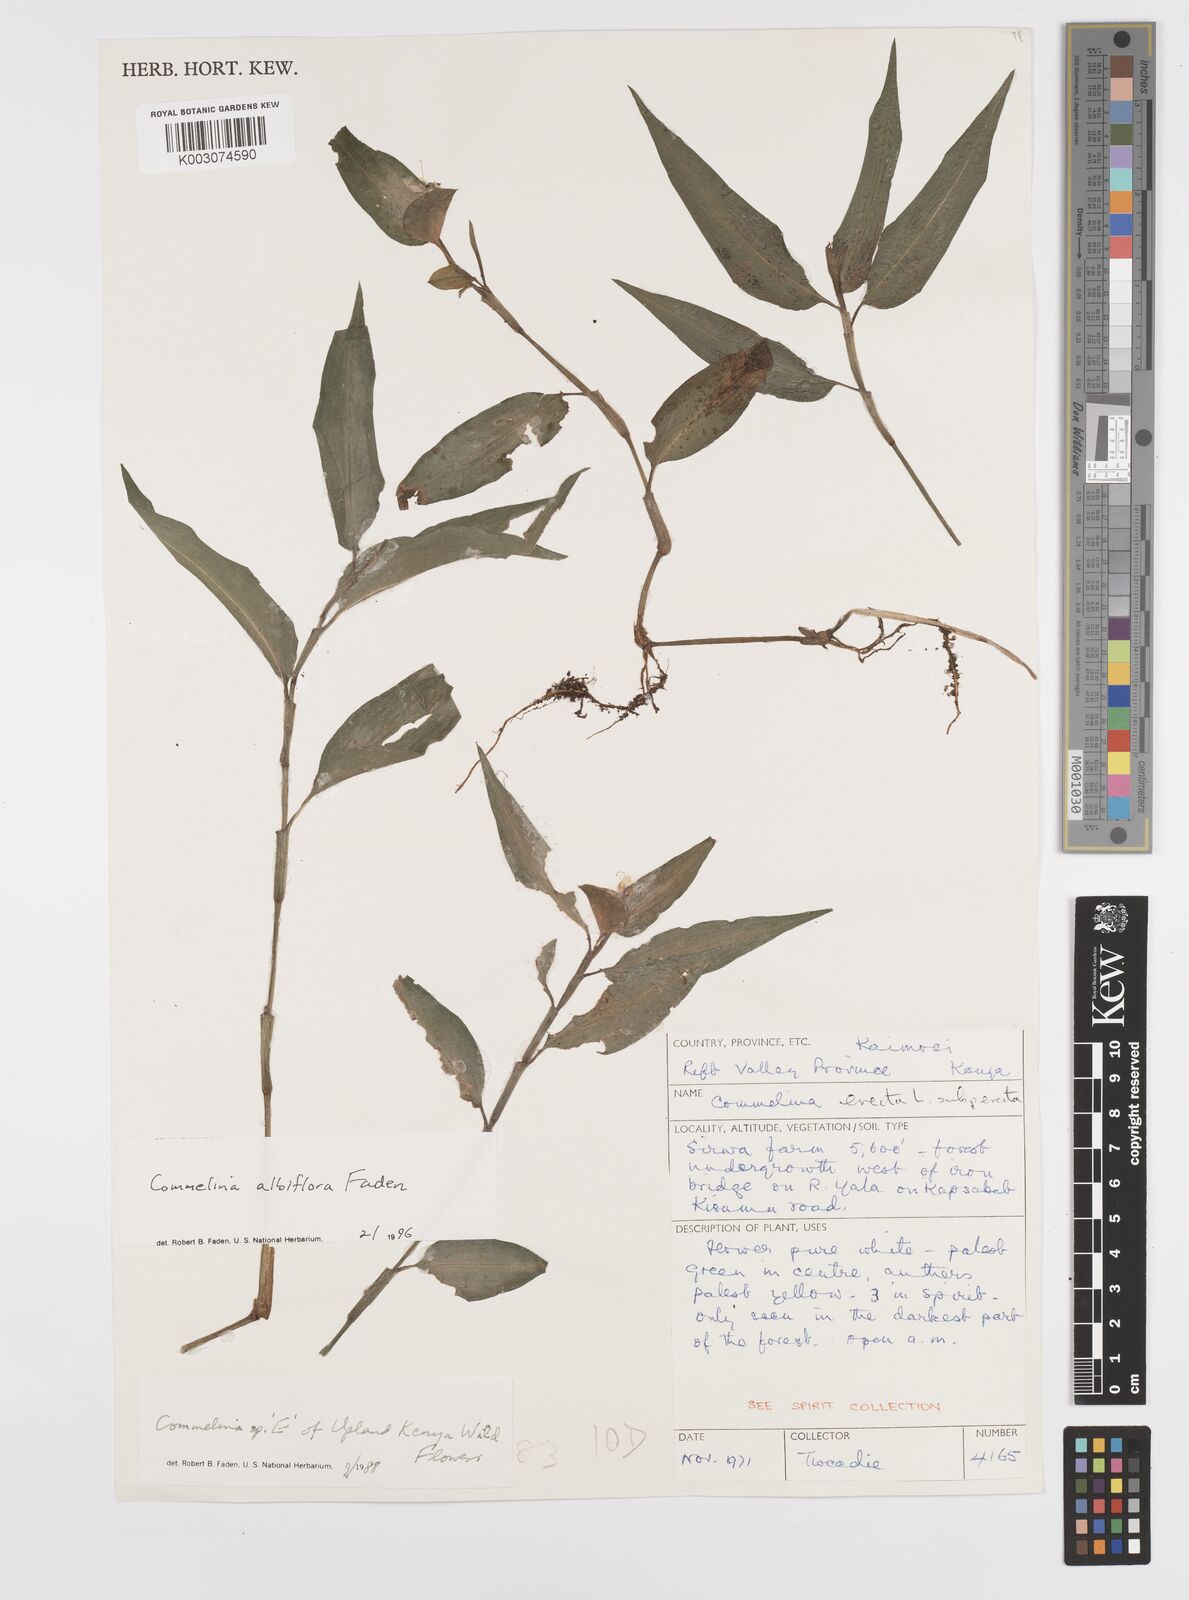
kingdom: Plantae
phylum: Tracheophyta
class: Liliopsida
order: Commelinales
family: Commelinaceae
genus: Commelina
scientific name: Commelina albiflora
